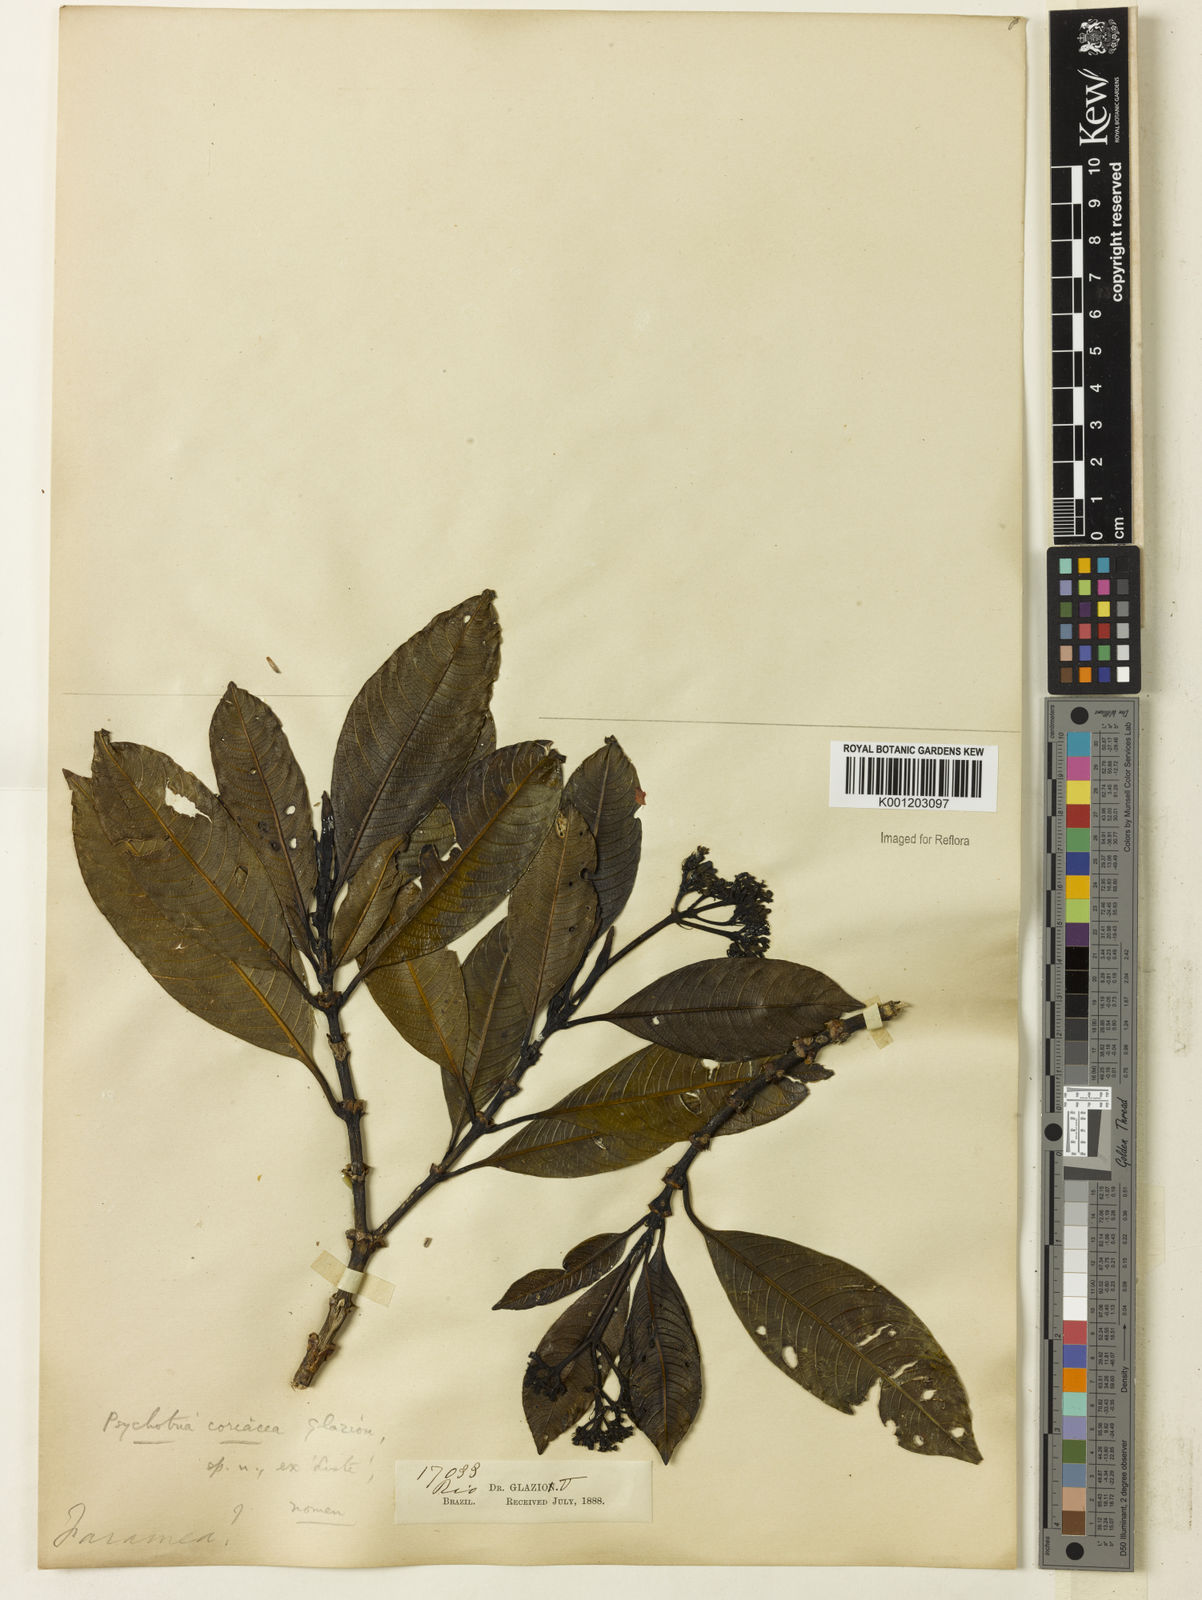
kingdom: Plantae
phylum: Tracheophyta
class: Magnoliopsida
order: Gentianales
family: Rubiaceae
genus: Palicourea
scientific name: Palicourea coriacea
